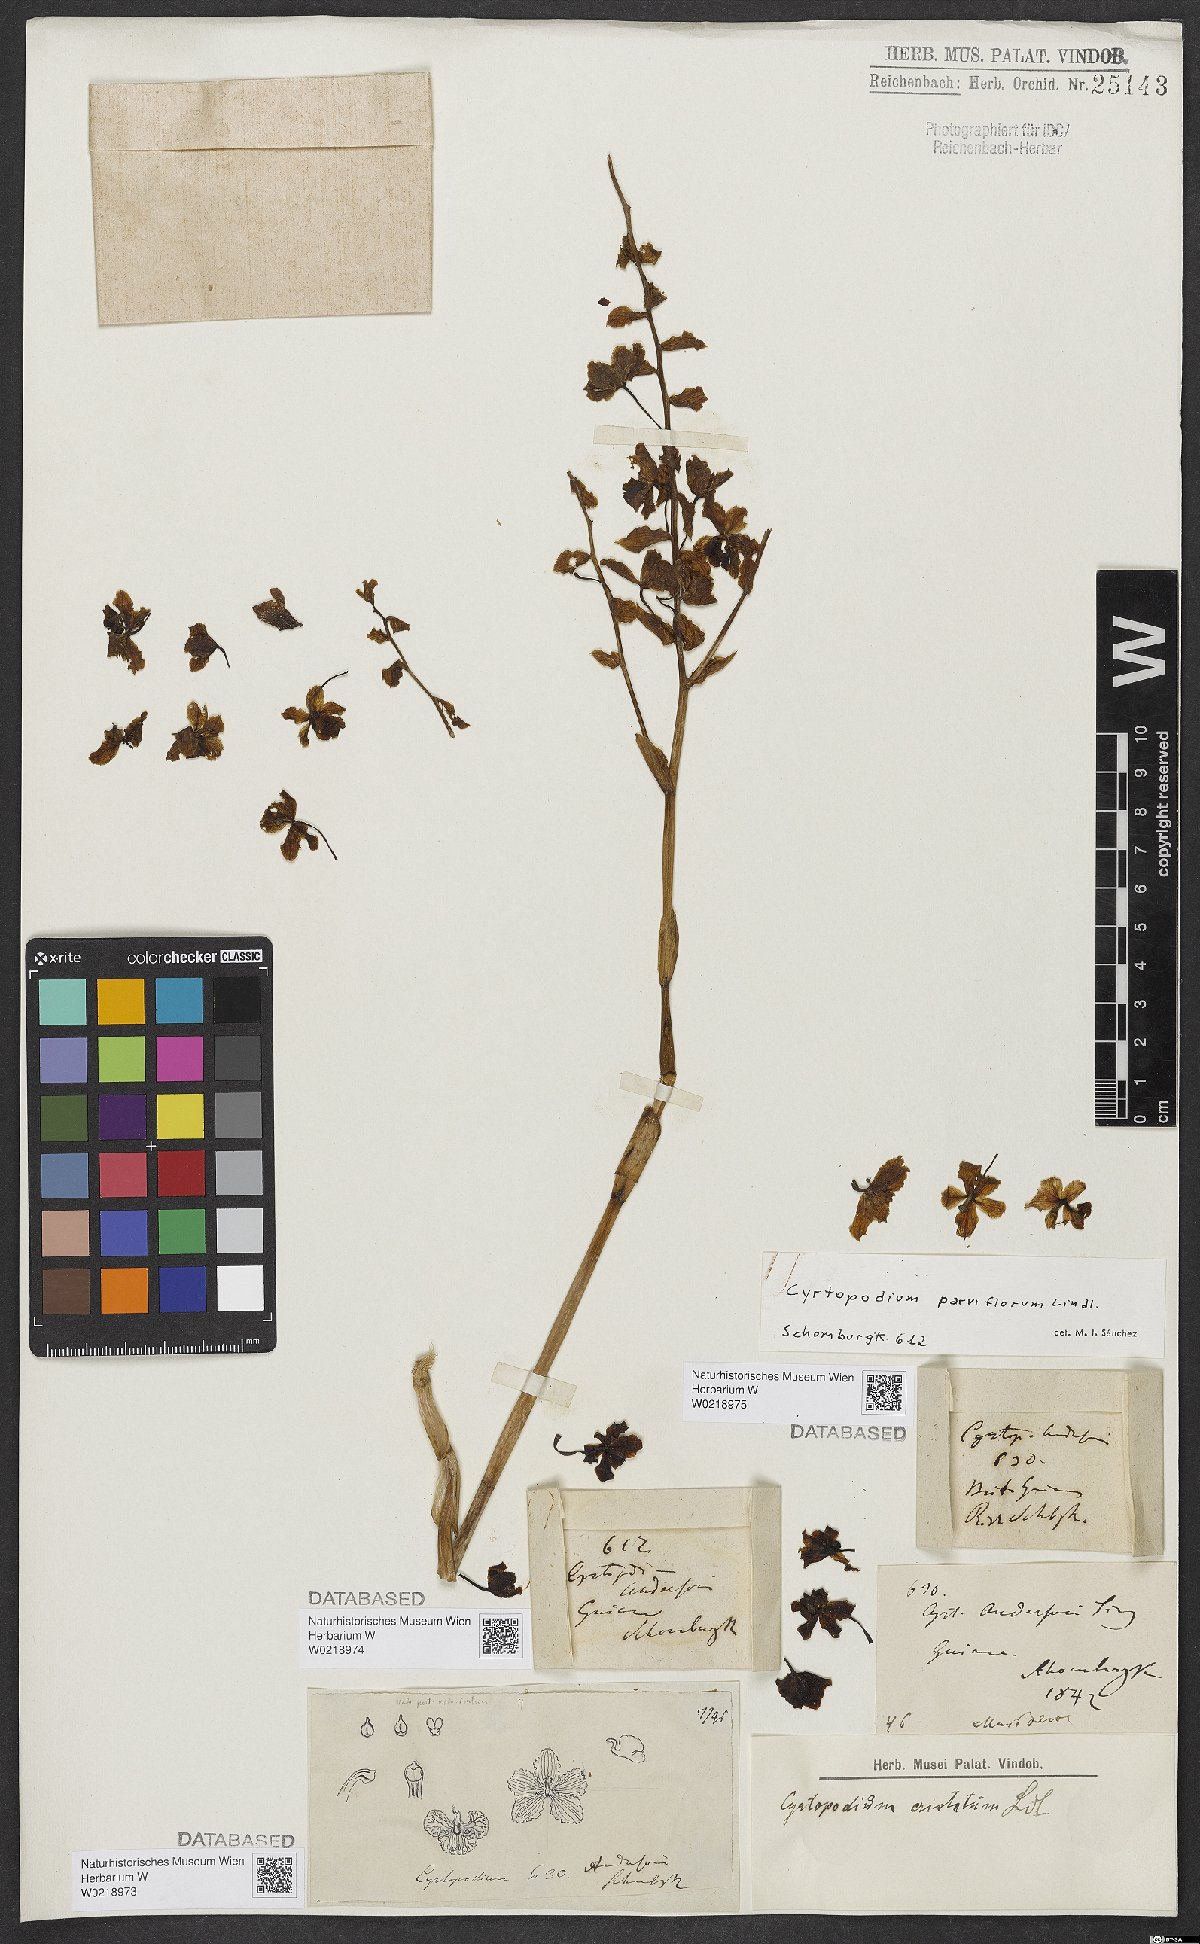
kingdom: Plantae
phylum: Tracheophyta
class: Liliopsida
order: Asparagales
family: Orchidaceae
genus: Cyrtopodium
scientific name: Cyrtopodium parviflorum
